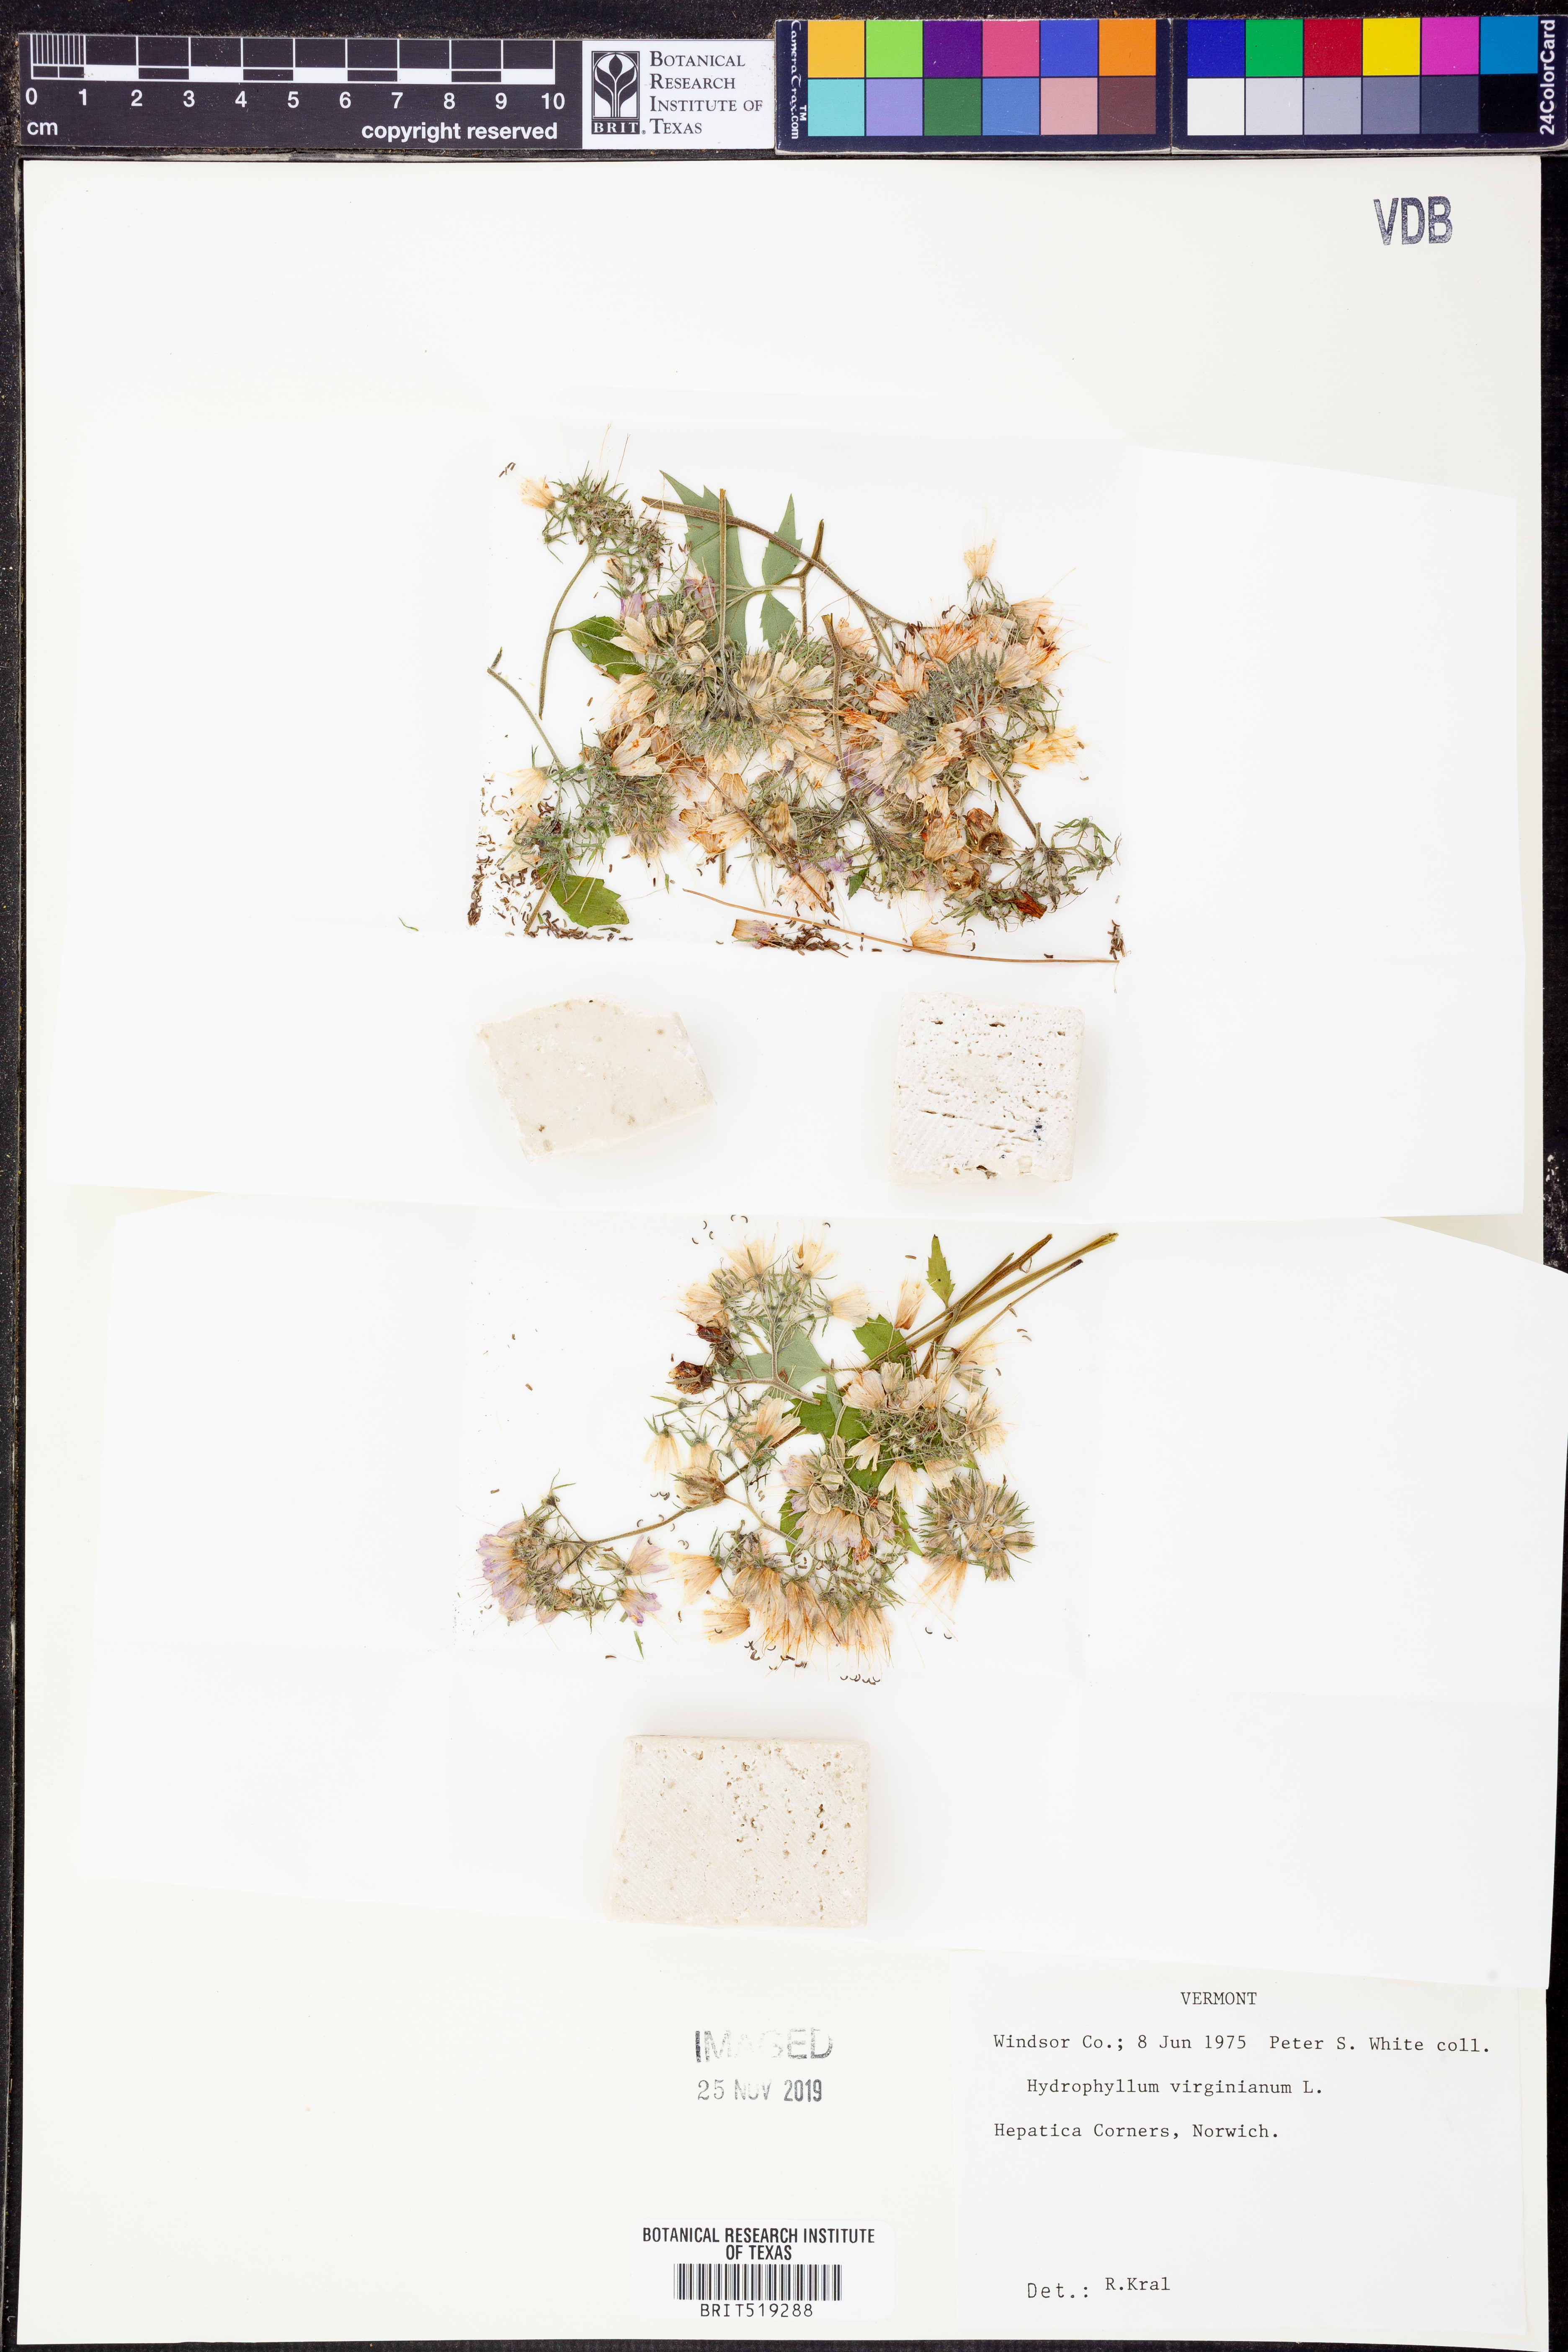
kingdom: Plantae
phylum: Tracheophyta
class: Magnoliopsida
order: Boraginales
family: Hydrophyllaceae
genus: Hydrophyllum
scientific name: Hydrophyllum virginianum
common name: Virginia waterleaf
